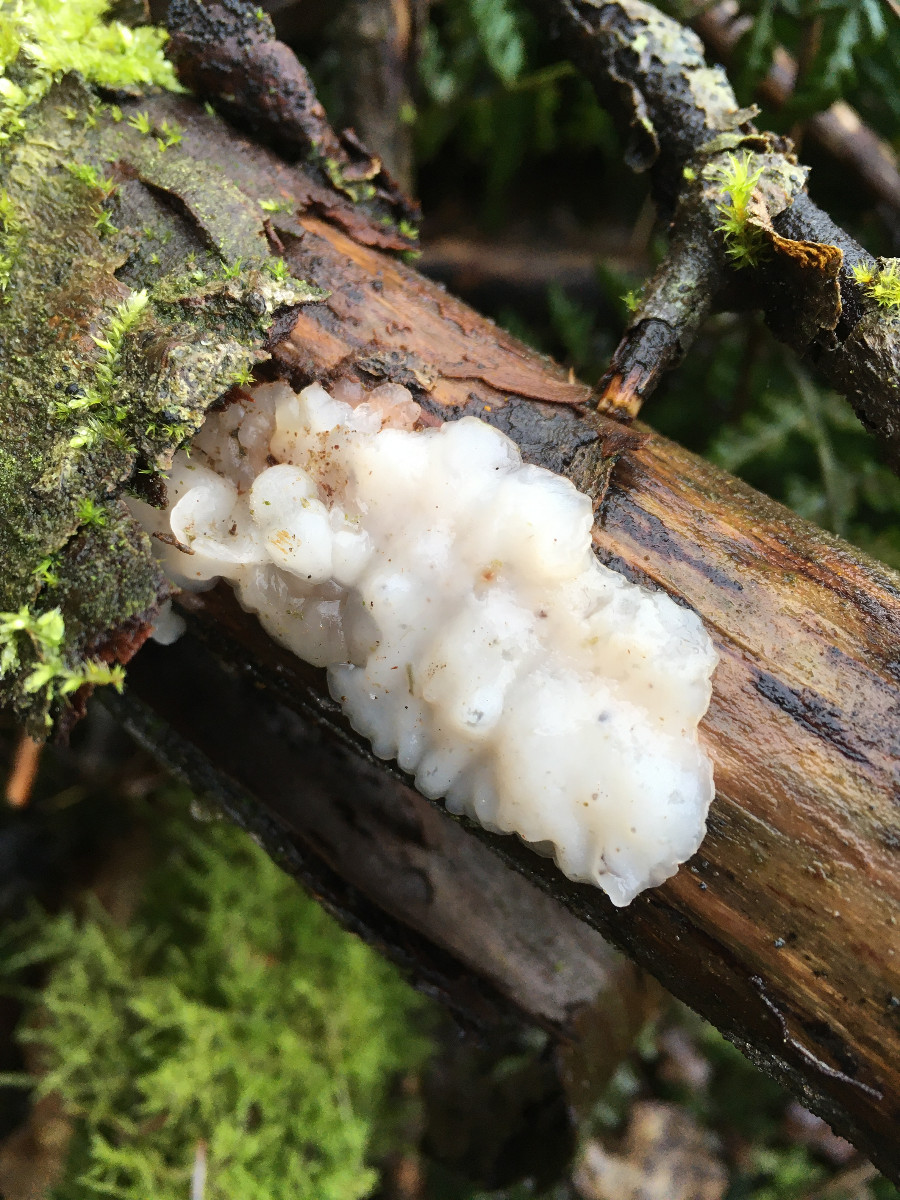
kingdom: Fungi
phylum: Basidiomycota
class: Agaricomycetes
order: Auriculariales
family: Auriculariaceae
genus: Exidia
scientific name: Exidia thuretiana
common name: hvidlig bævretop
